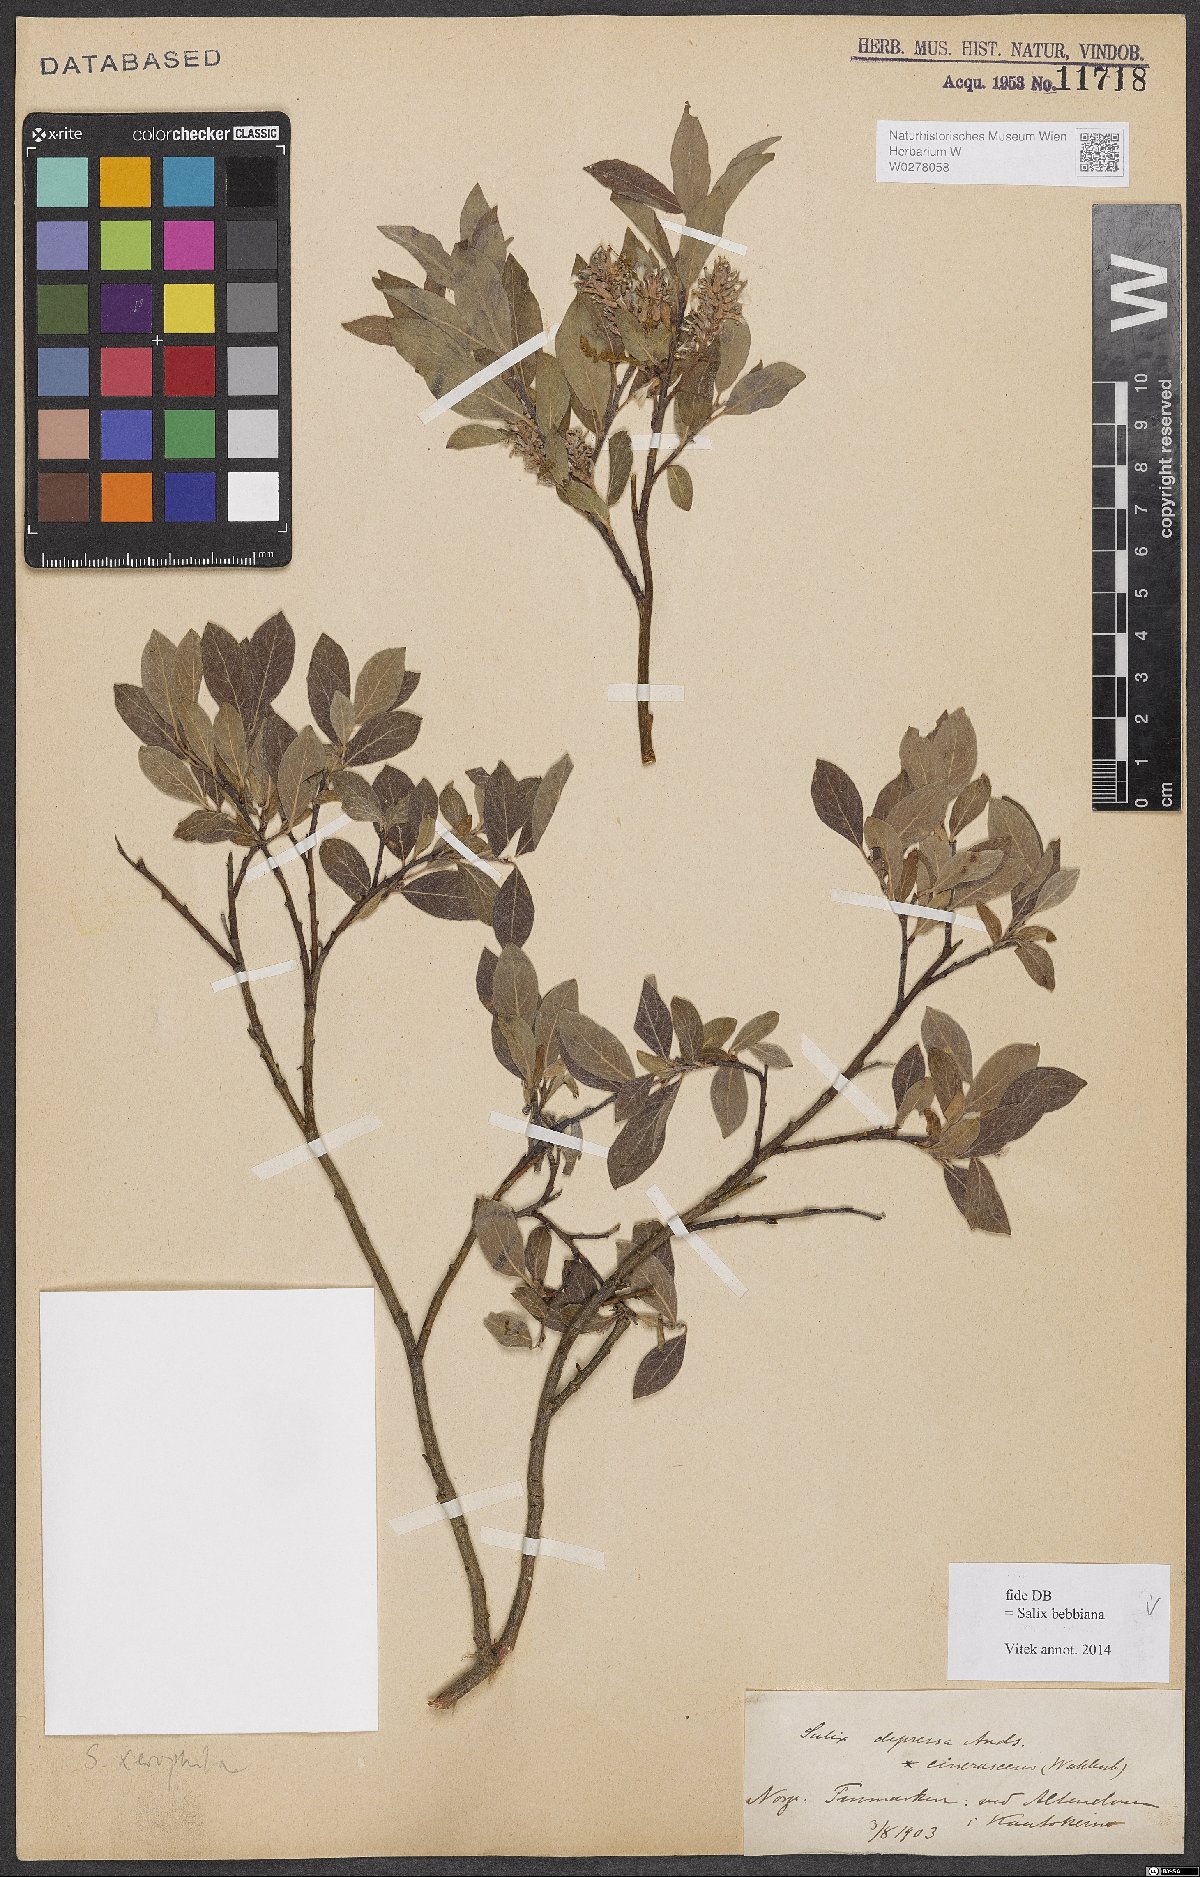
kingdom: Plantae
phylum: Tracheophyta
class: Magnoliopsida
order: Malpighiales
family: Salicaceae
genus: Salix
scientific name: Salix bebbiana
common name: Bebb's willow
